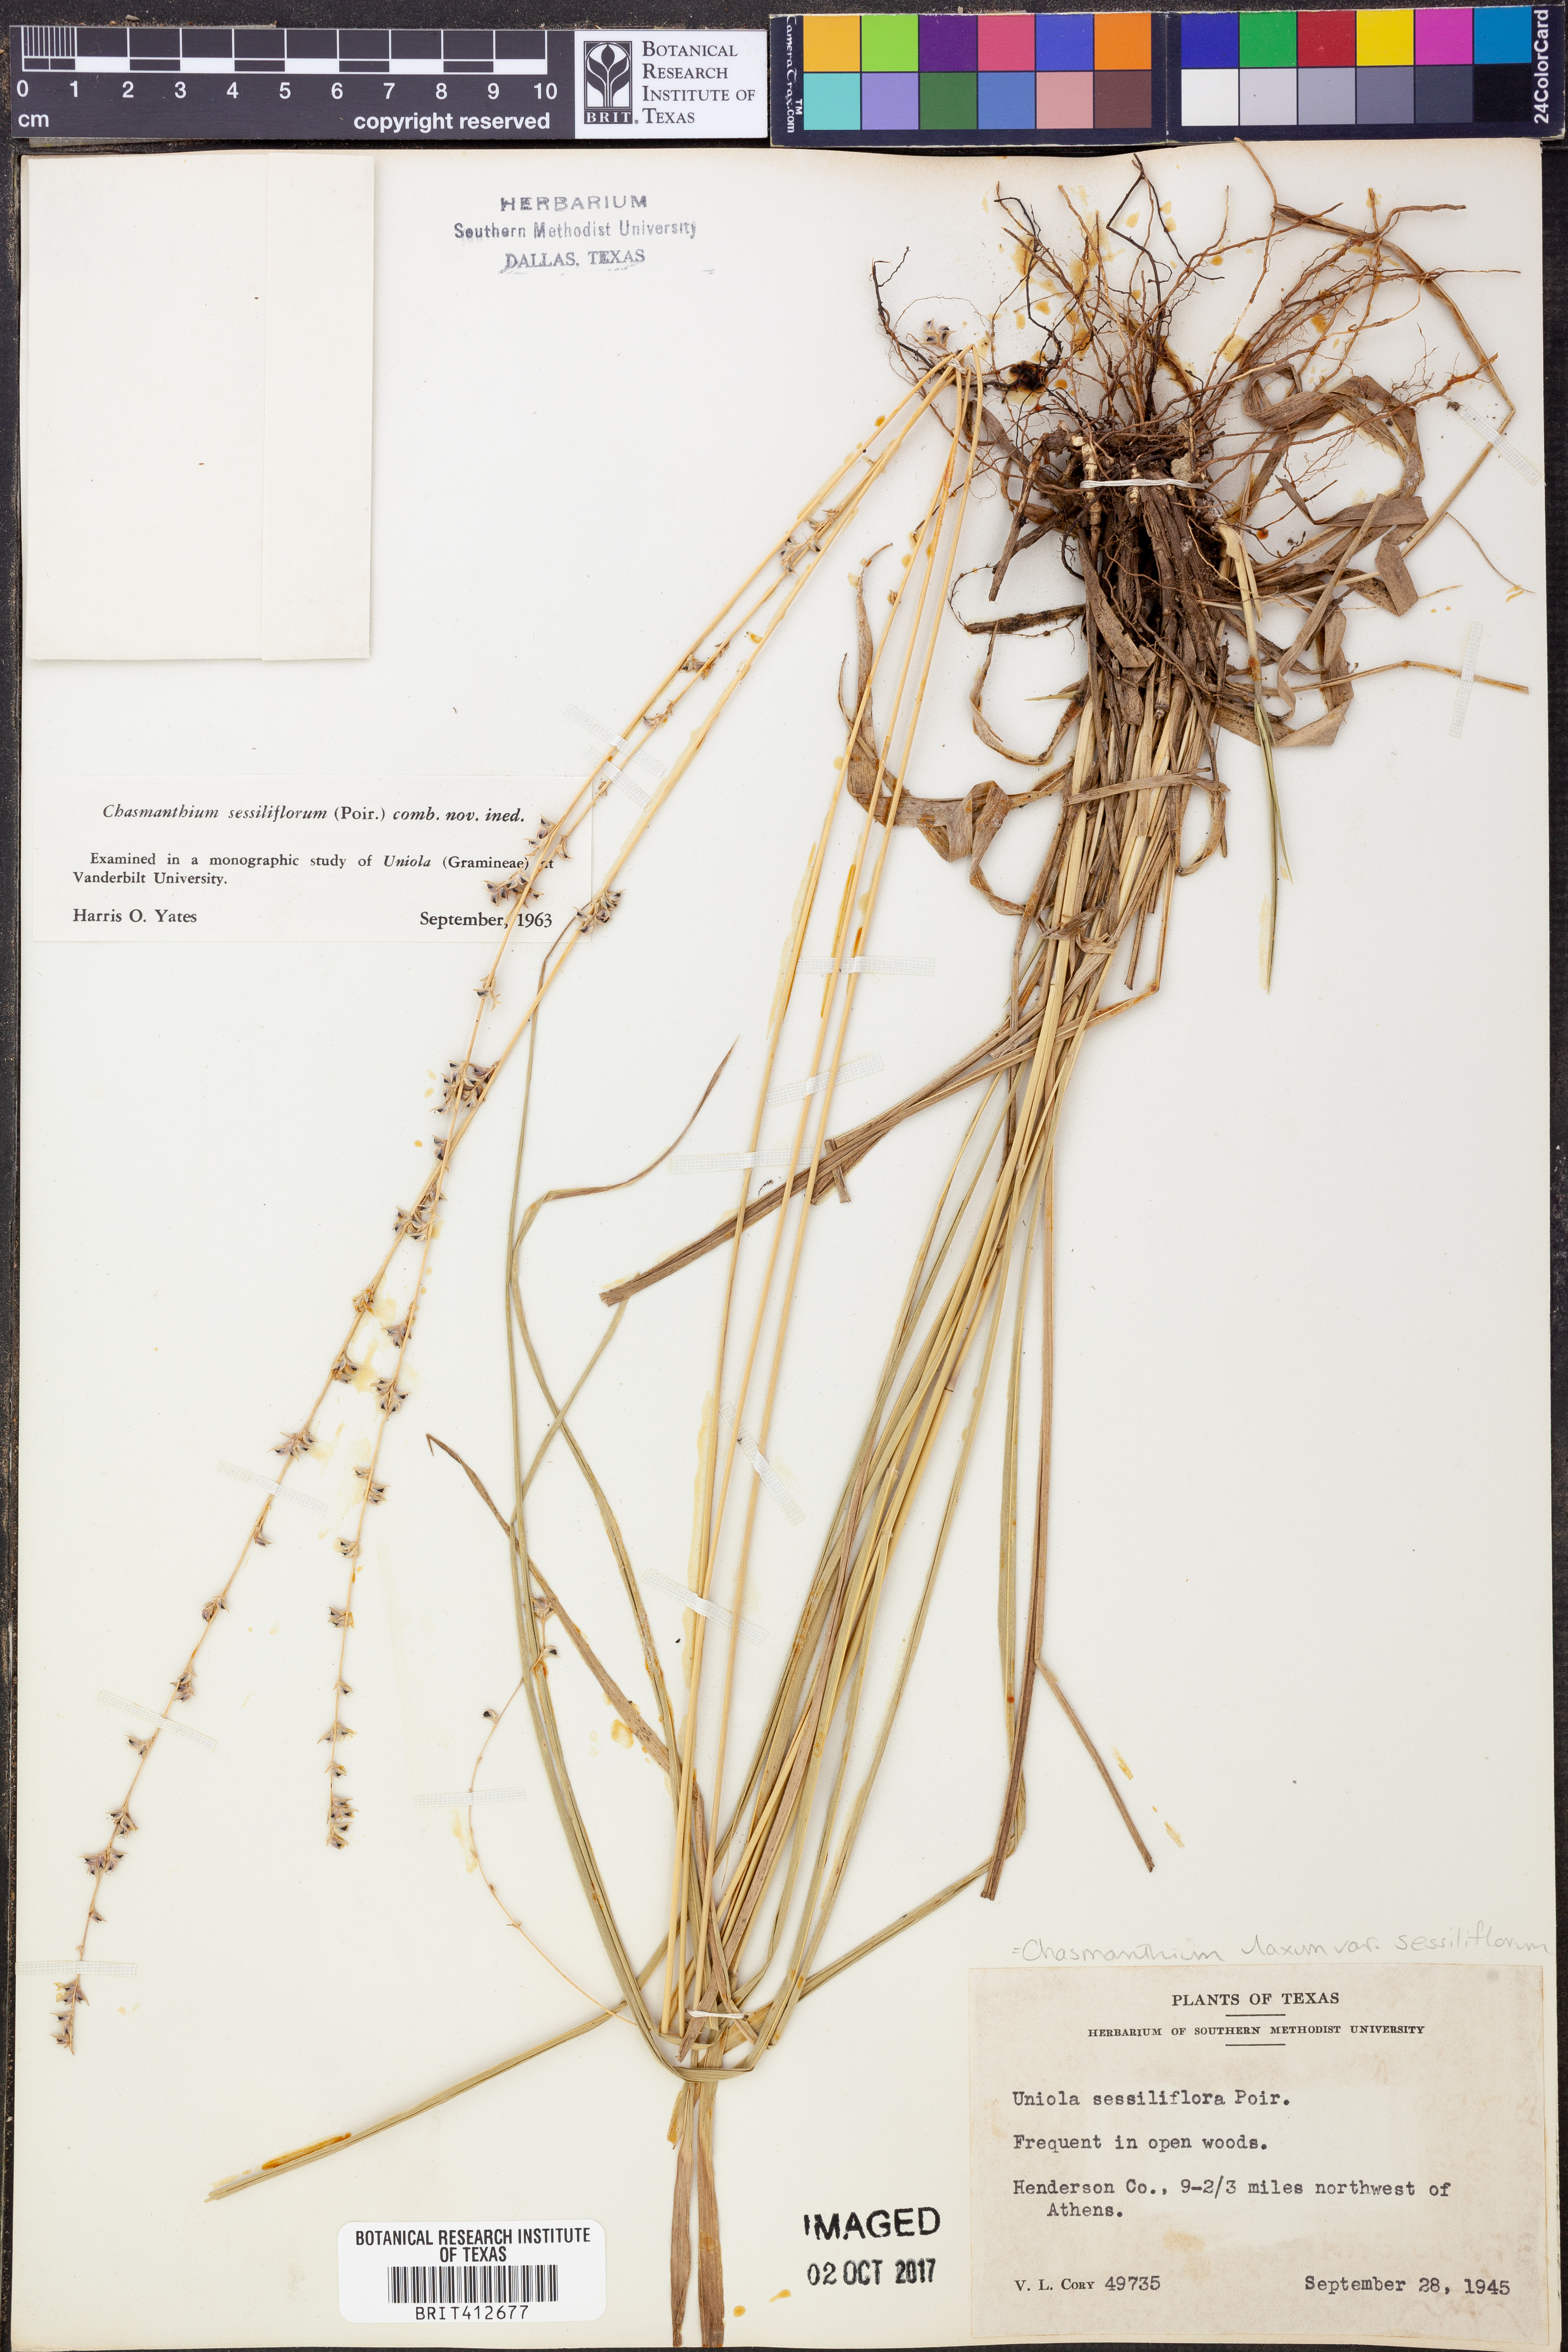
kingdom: Plantae
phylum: Tracheophyta
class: Liliopsida
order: Poales
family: Poaceae
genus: Chasmanthium
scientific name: Chasmanthium laxum
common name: Slender chasmanthium
